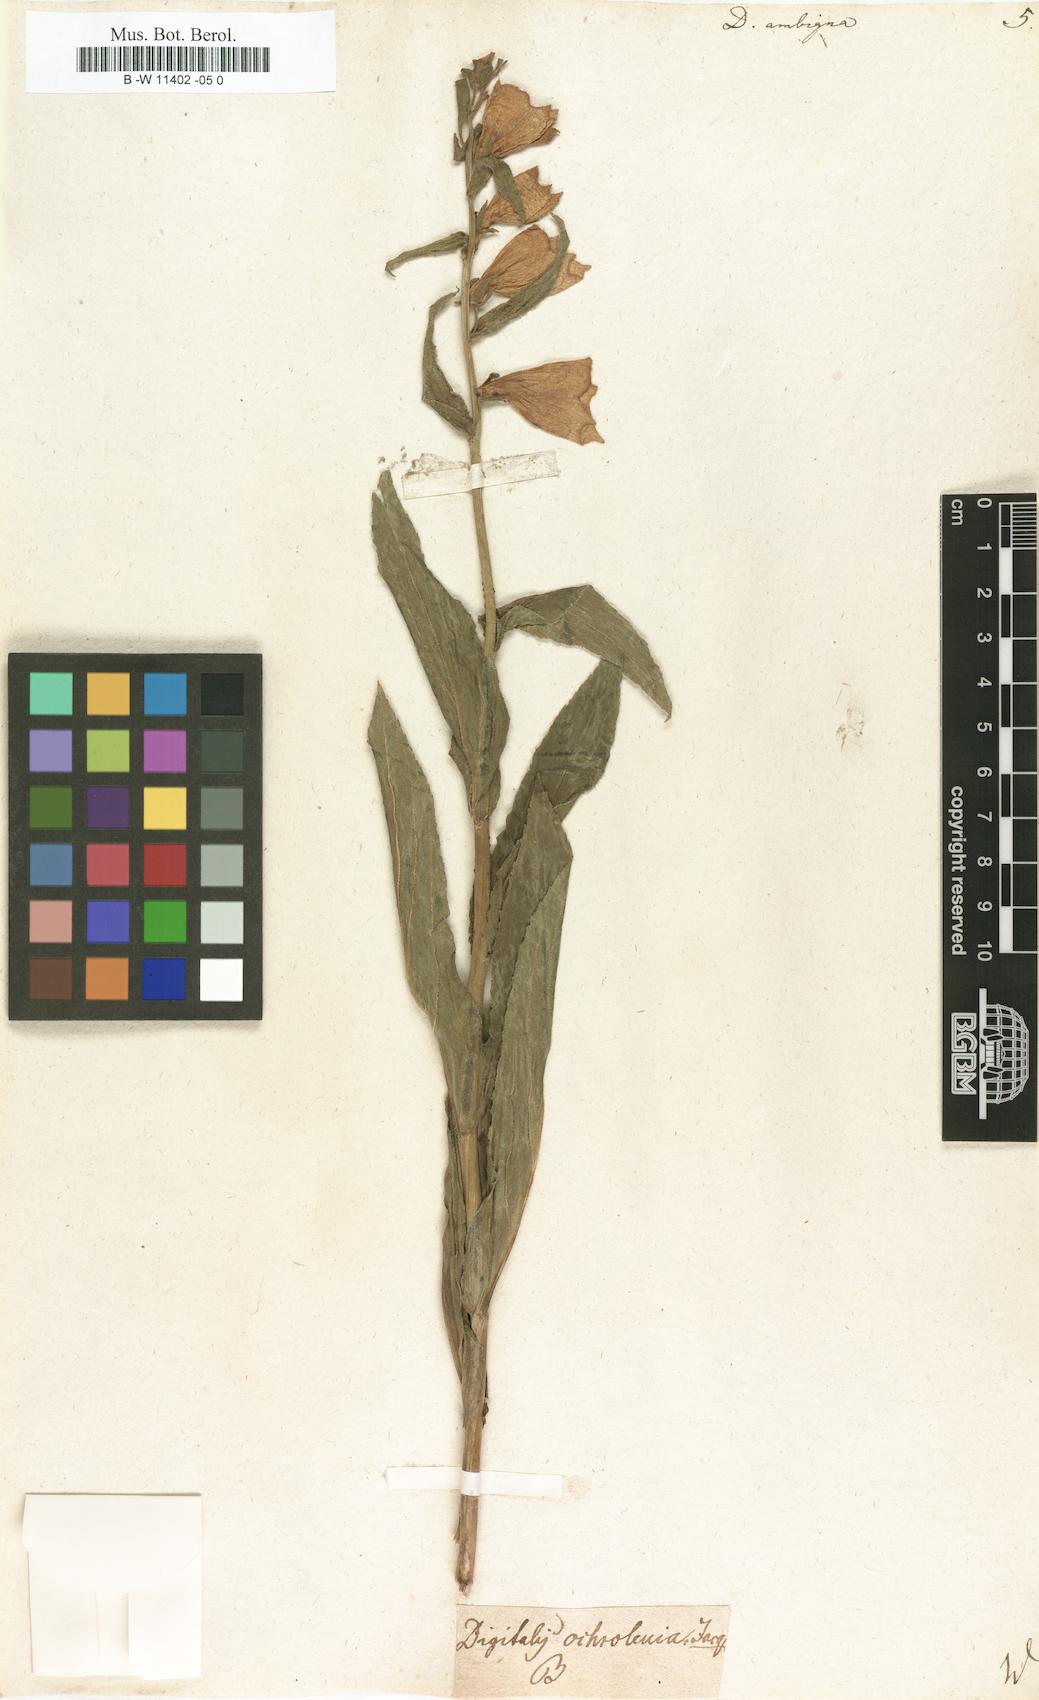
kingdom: Plantae
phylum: Tracheophyta
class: Magnoliopsida
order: Lamiales
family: Plantaginaceae
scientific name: Plantaginaceae
